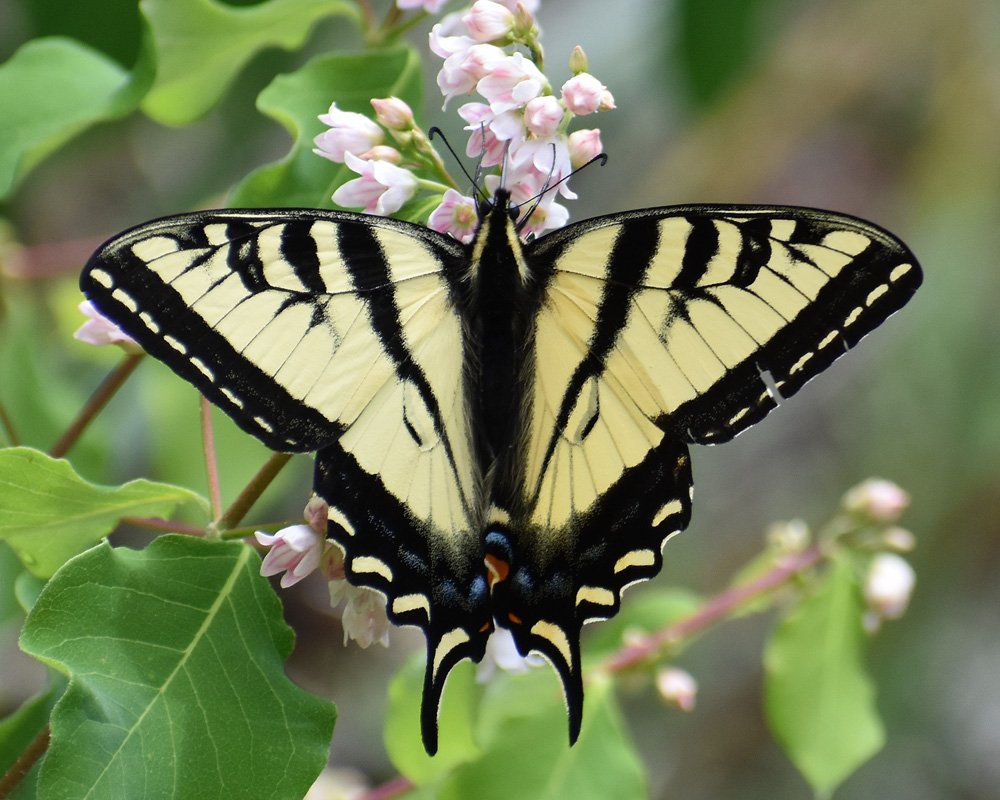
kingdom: Animalia
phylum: Arthropoda
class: Insecta
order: Lepidoptera
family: Papilionidae
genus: Pterourus
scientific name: Pterourus rutulus
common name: Western Tiger Swallowtail
